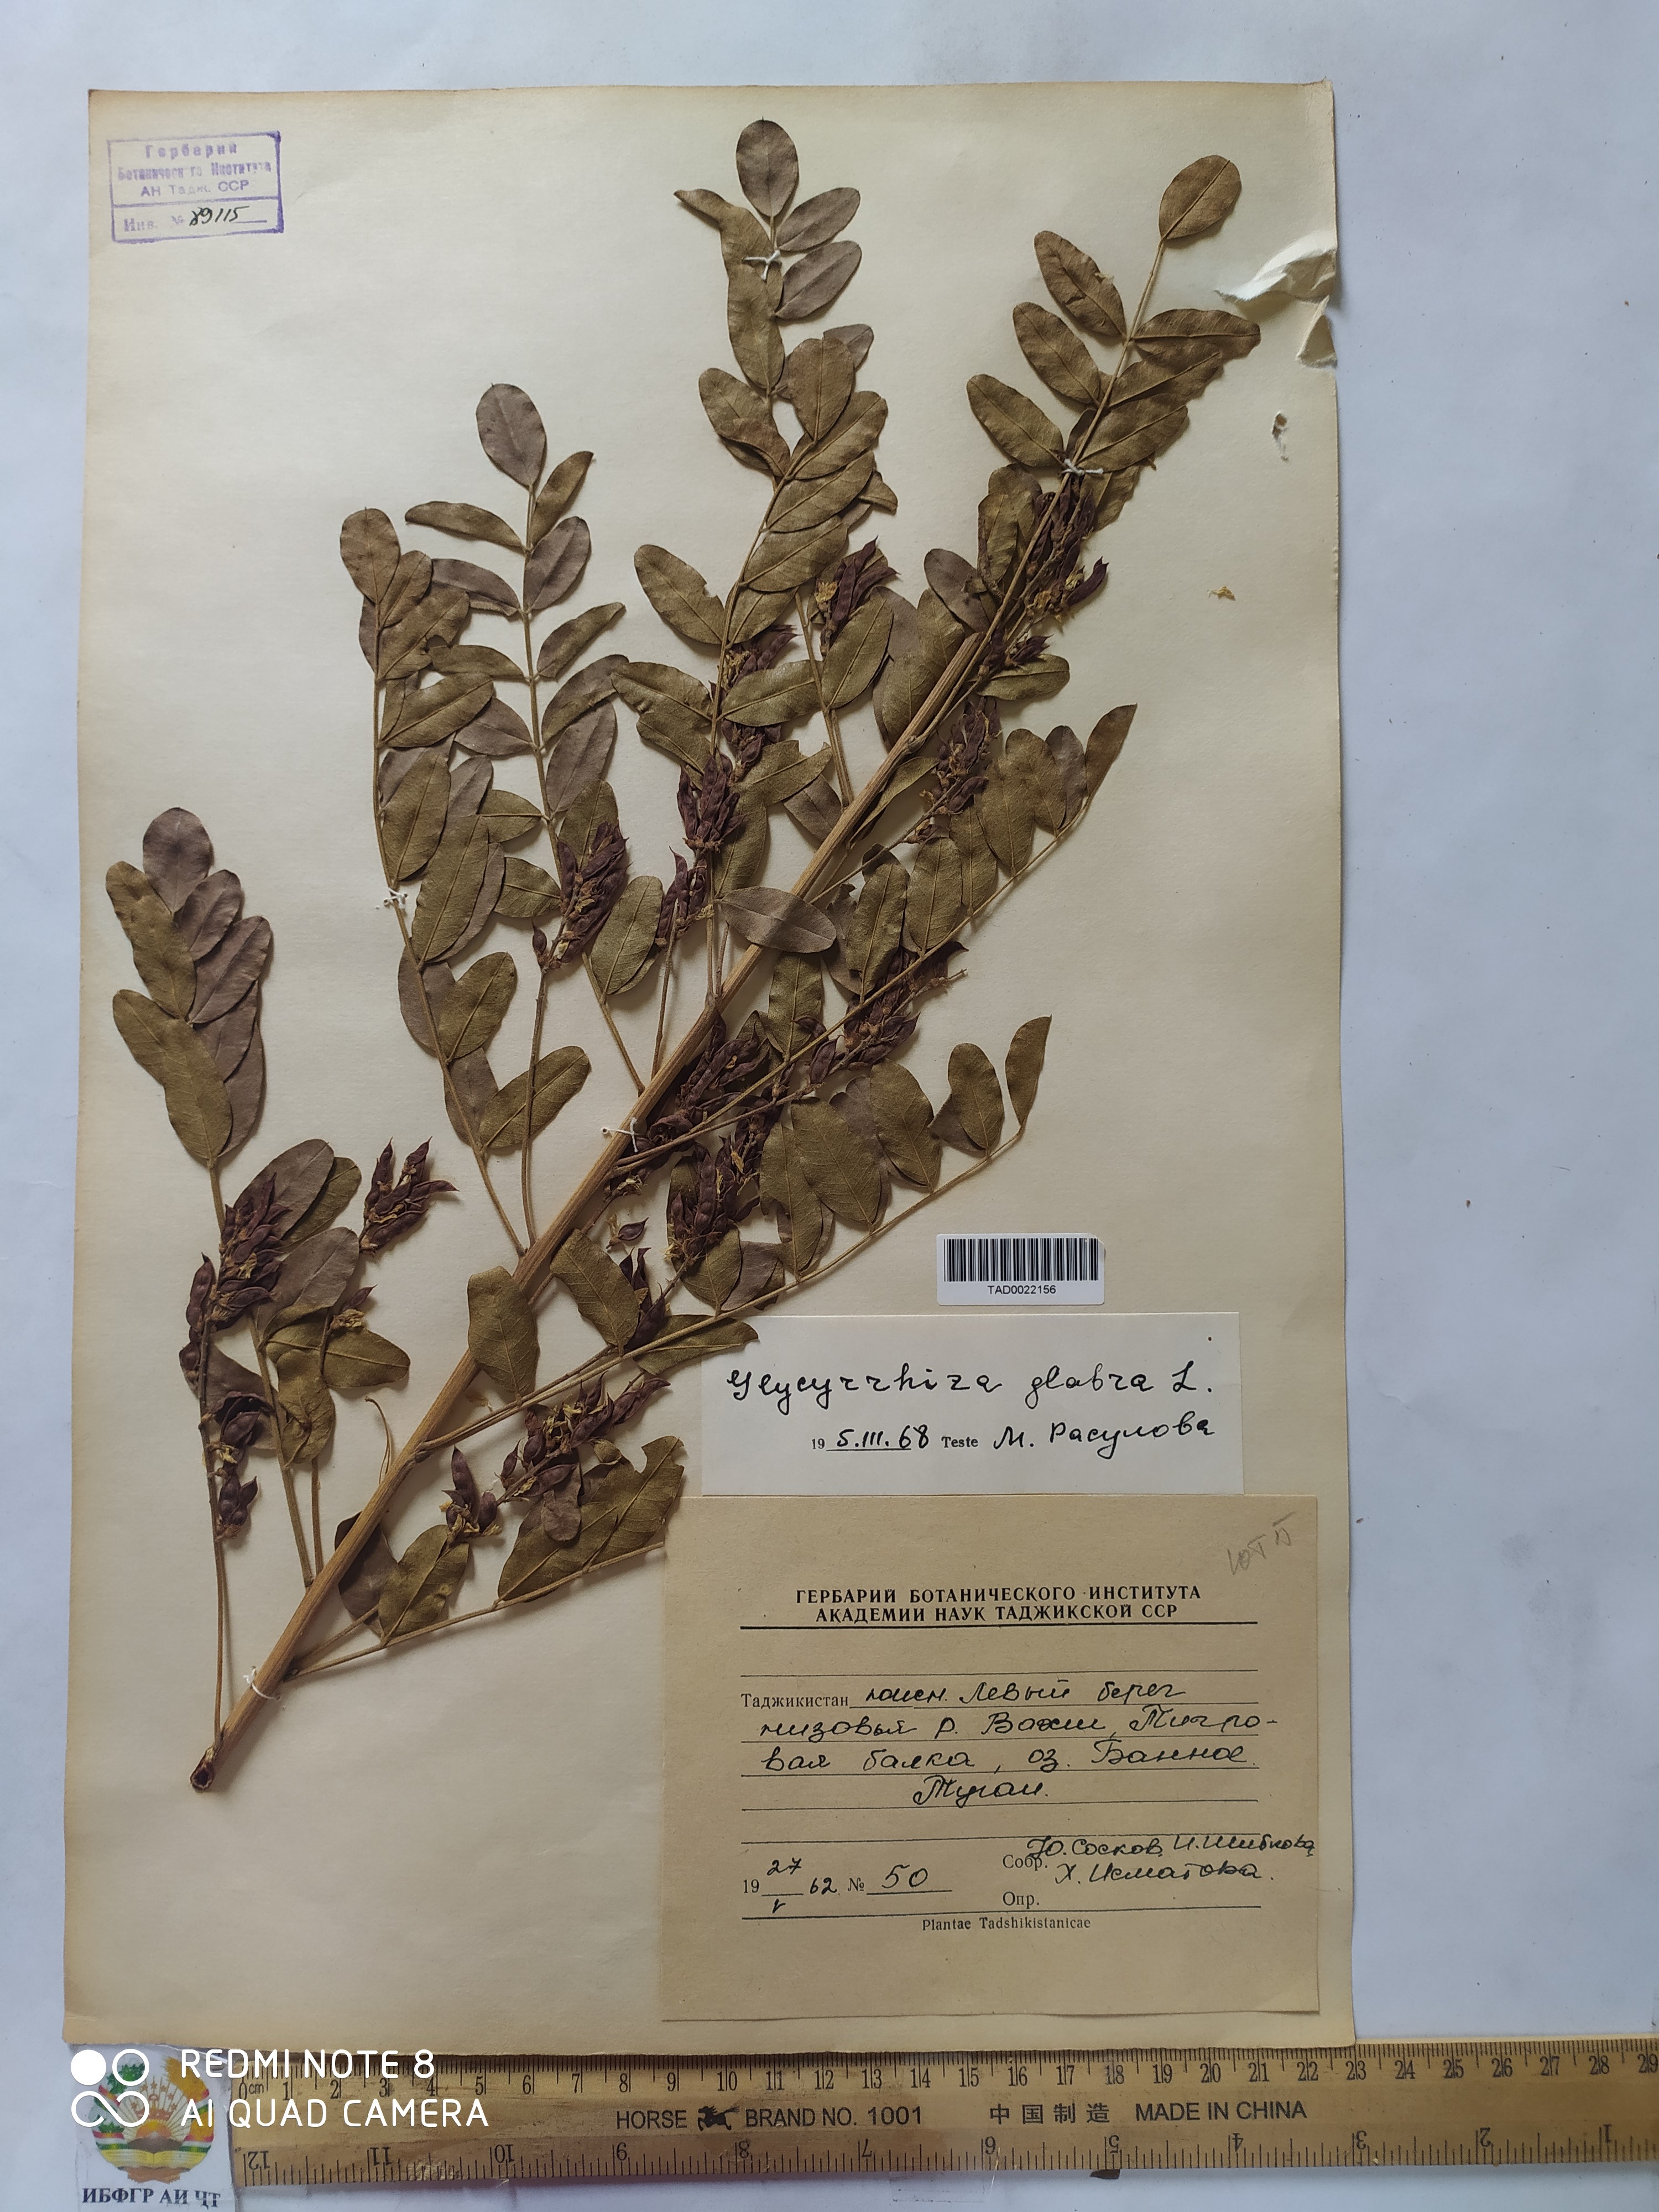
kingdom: Plantae
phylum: Tracheophyta
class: Magnoliopsida
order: Fabales
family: Fabaceae
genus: Glycyrrhiza
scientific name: Glycyrrhiza glabra
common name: Liquorice
